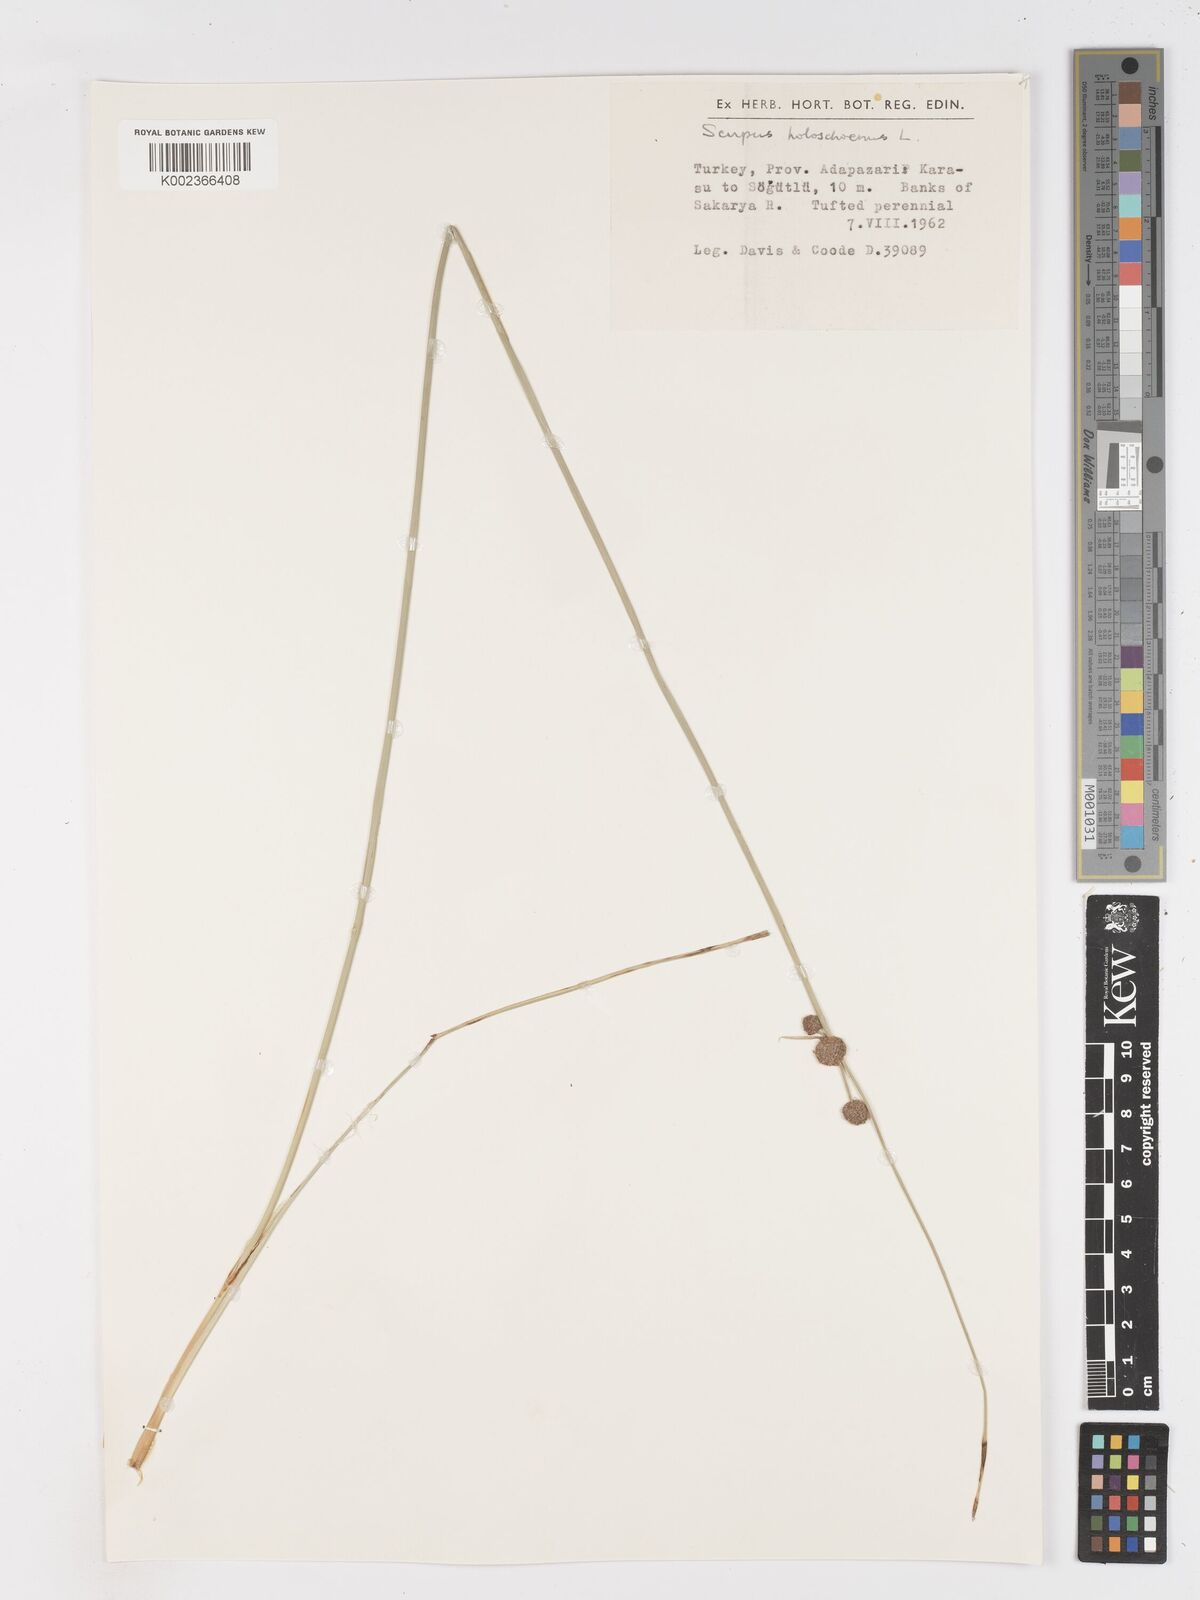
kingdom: Plantae
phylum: Tracheophyta
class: Liliopsida
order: Poales
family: Cyperaceae
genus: Scirpoides
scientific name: Scirpoides holoschoenus
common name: Round-headed club-rush
